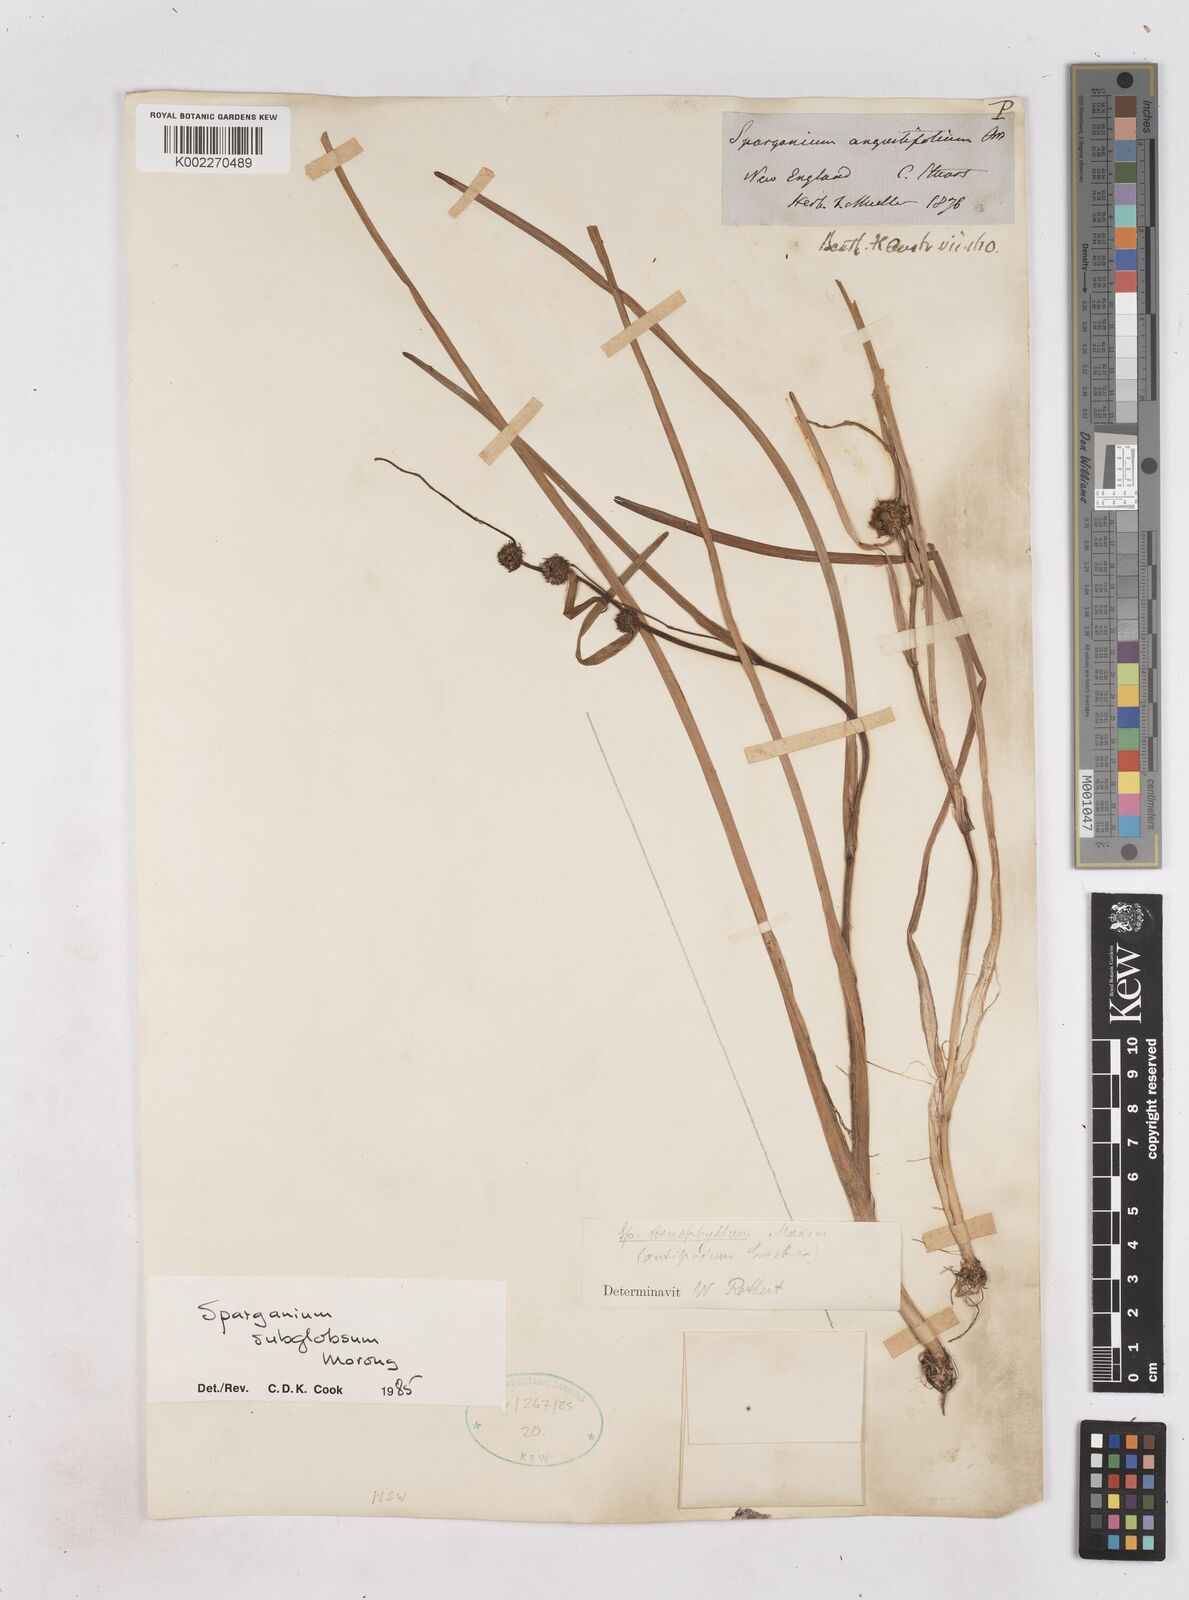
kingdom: Plantae
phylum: Tracheophyta
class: Liliopsida
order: Poales
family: Typhaceae
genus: Sparganium
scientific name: Sparganium subglobosum
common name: Burr­-reed
